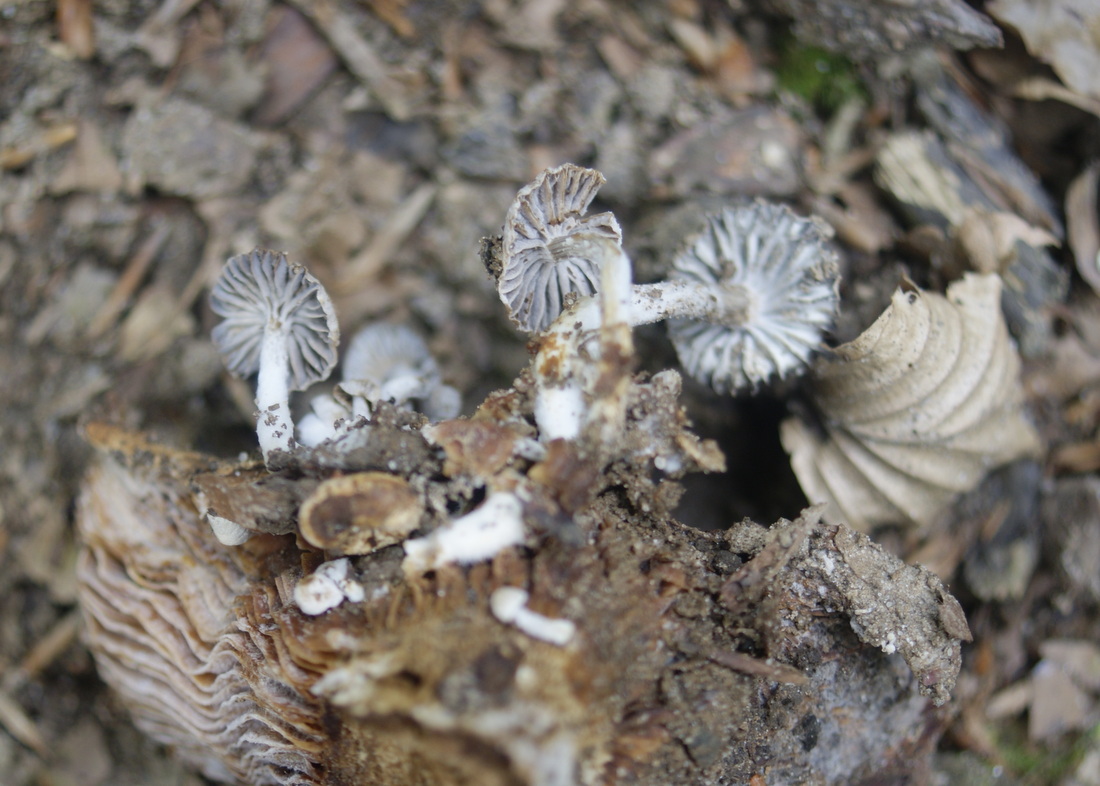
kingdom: Fungi
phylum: Basidiomycota
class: Agaricomycetes
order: Agaricales
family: Lyophyllaceae
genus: Asterophora
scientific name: Asterophora parasitica
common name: grå snyltehat
